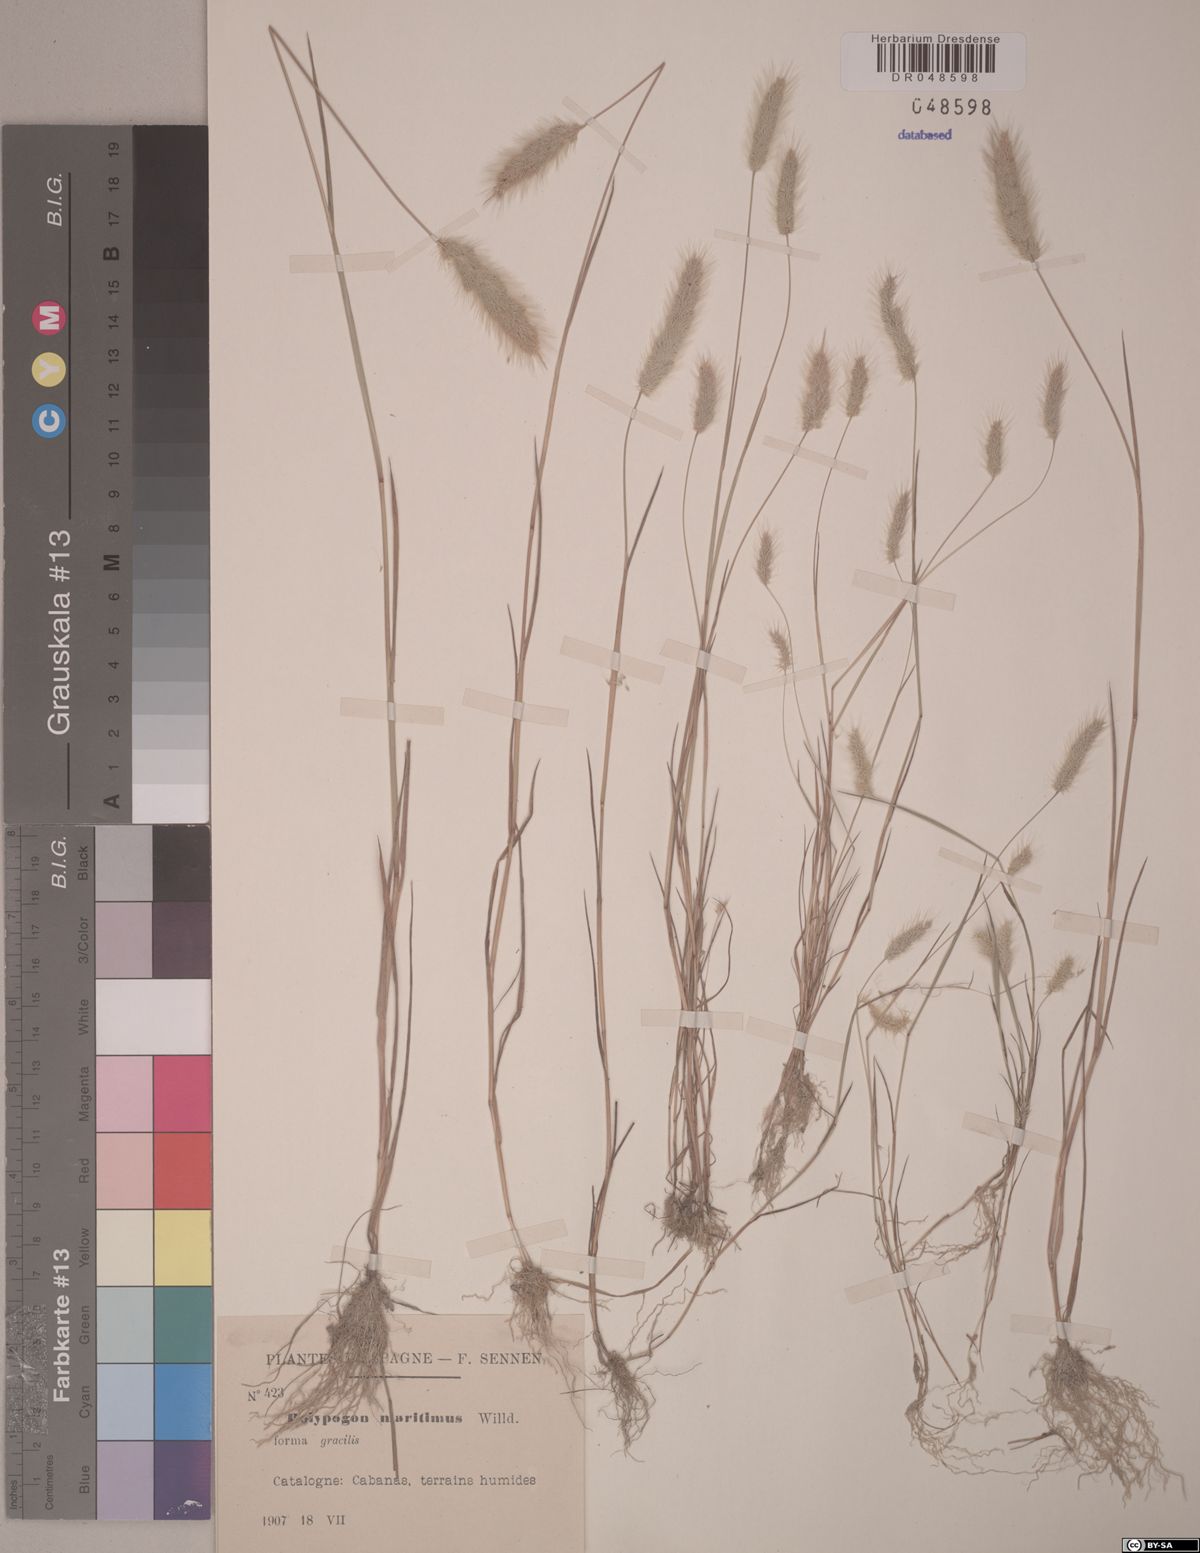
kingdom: Plantae
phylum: Tracheophyta
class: Liliopsida
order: Poales
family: Poaceae
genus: Polypogon
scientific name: Polypogon maritimus
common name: Mediterranean rabbitsfoot grass
